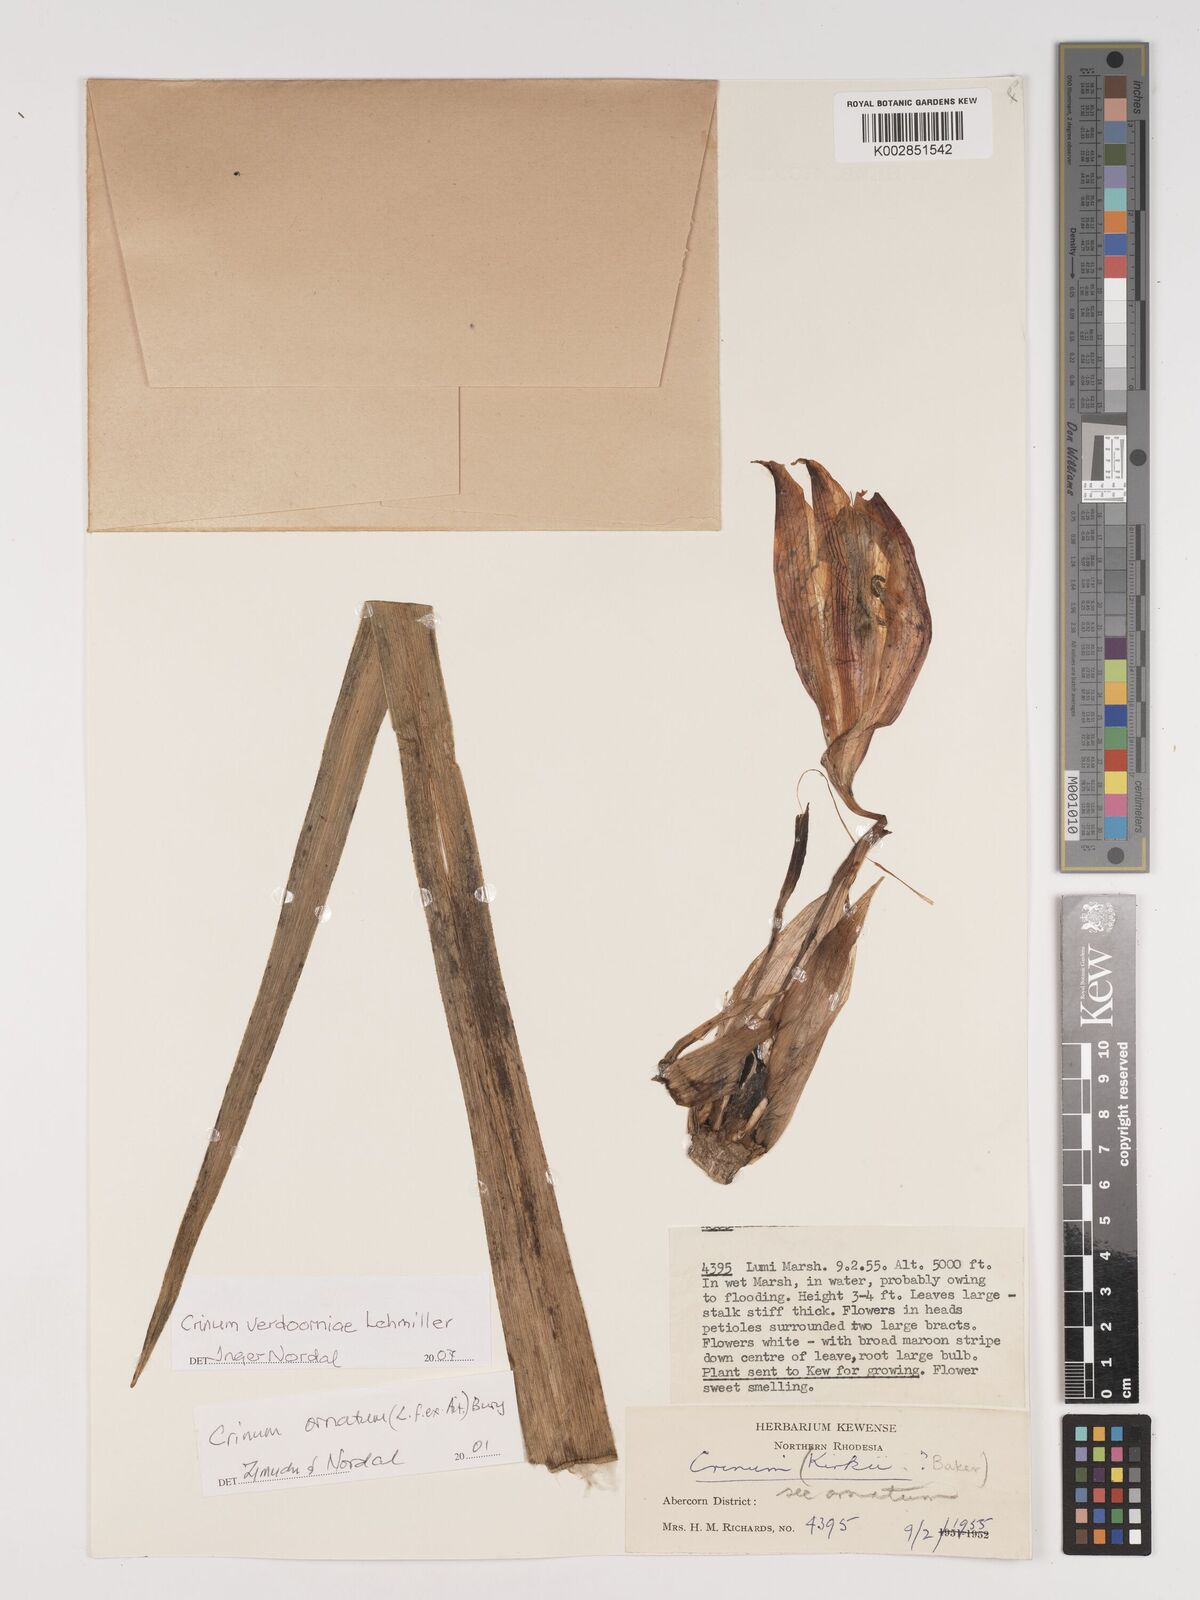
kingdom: Plantae
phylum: Tracheophyta
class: Liliopsida
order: Asparagales
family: Amaryllidaceae
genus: Crinum
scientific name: Crinum verdoorniae
